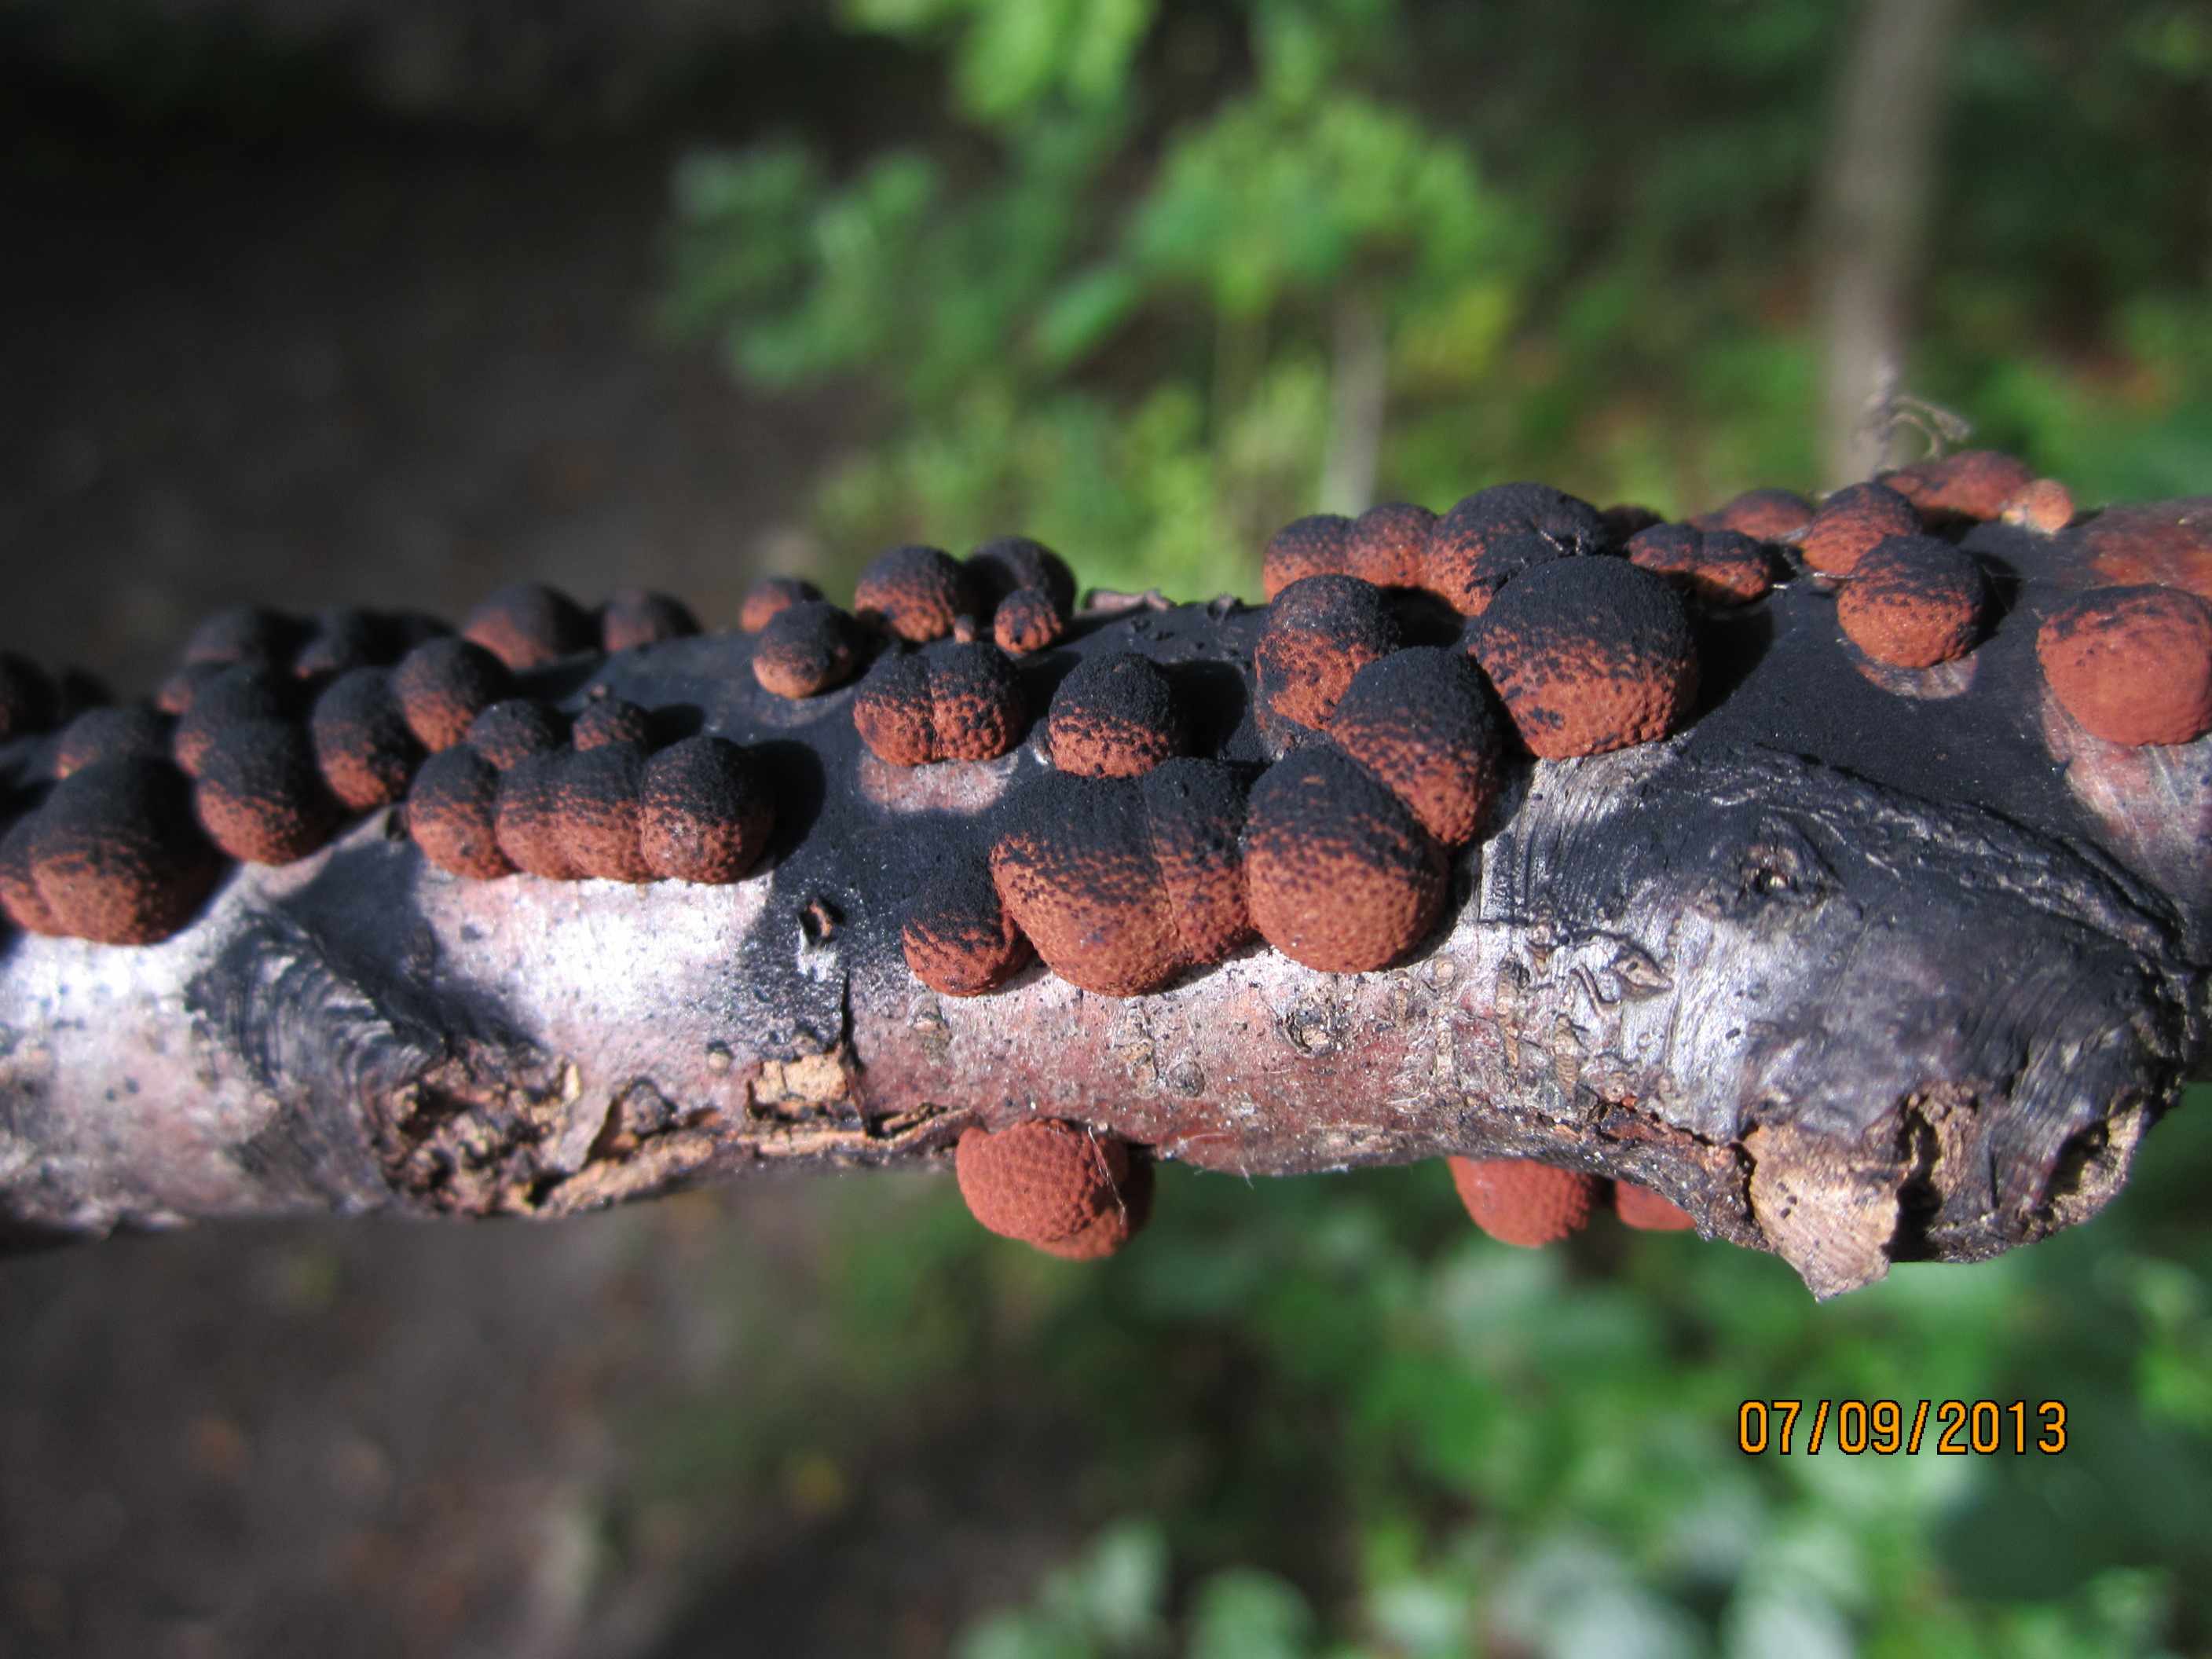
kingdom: Fungi
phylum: Ascomycota
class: Sordariomycetes
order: Xylariales
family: Hypoxylaceae
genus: Hypoxylon
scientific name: Hypoxylon fragiforme
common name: kuljordbær
